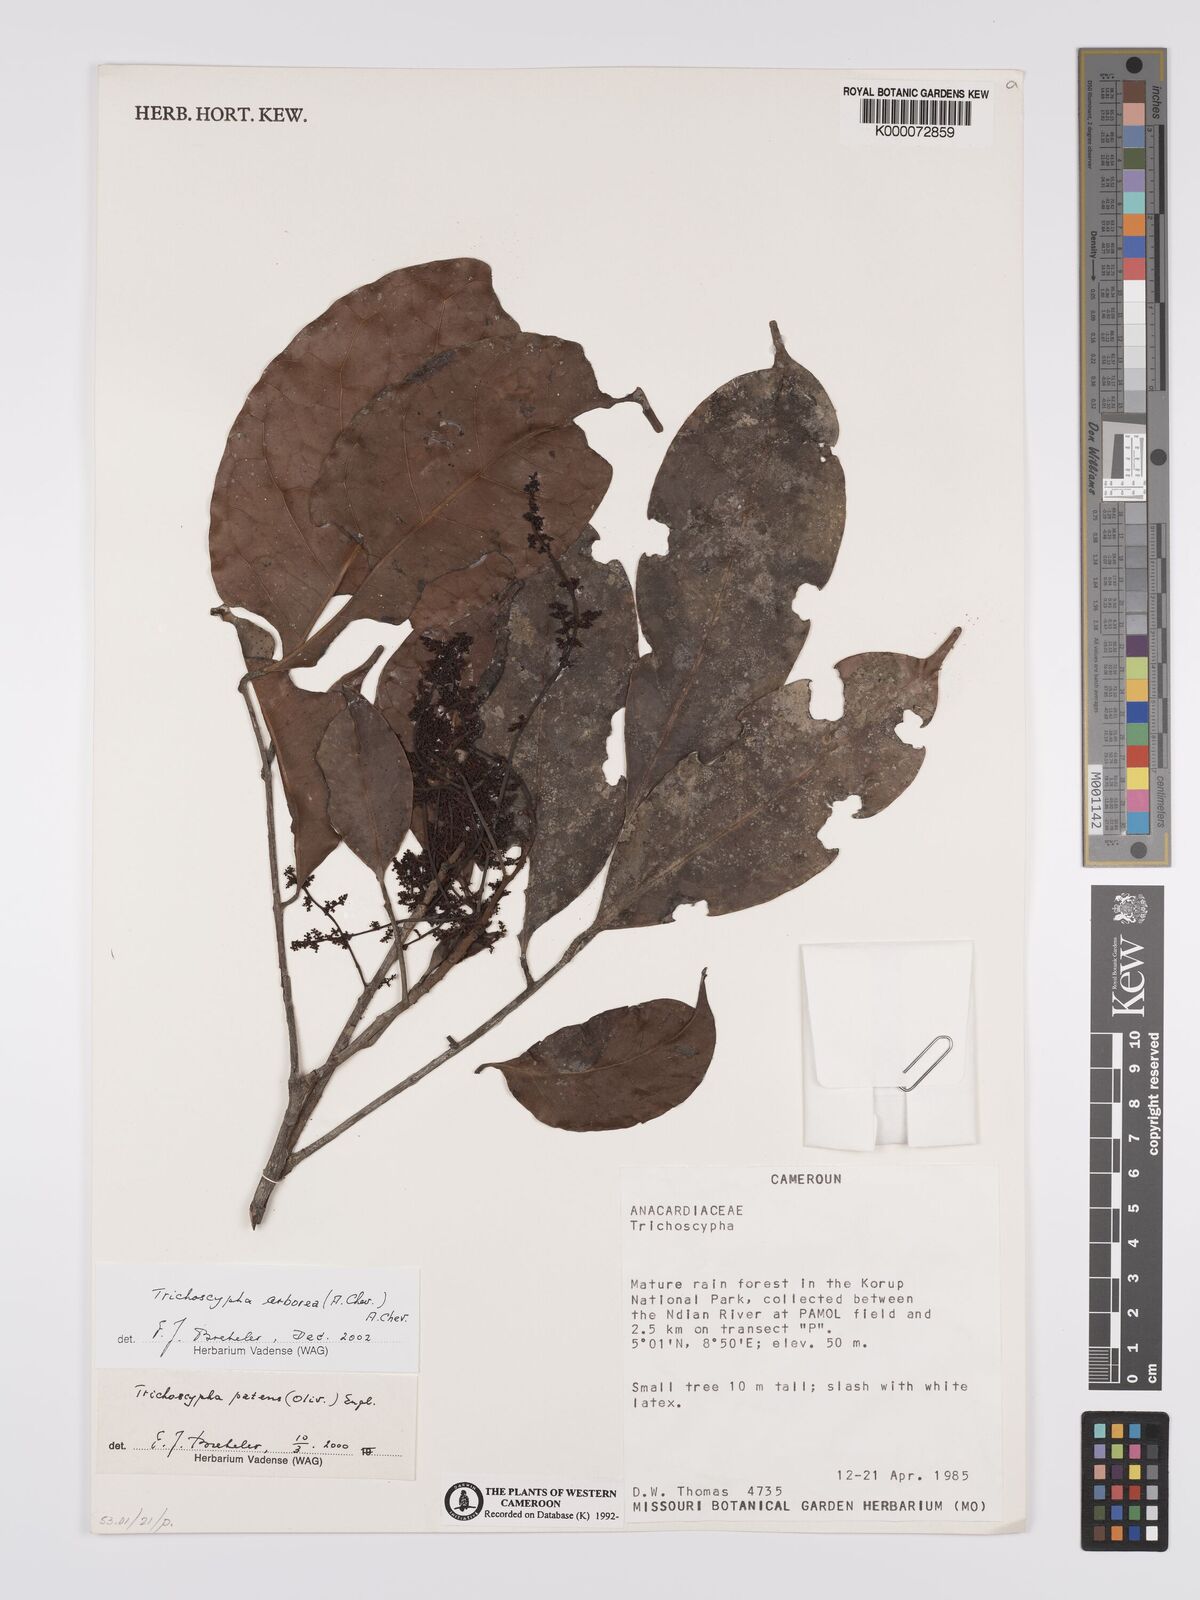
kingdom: Plantae
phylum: Tracheophyta
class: Magnoliopsida
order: Sapindales
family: Anacardiaceae
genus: Trichoscypha
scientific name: Trichoscypha arborea
